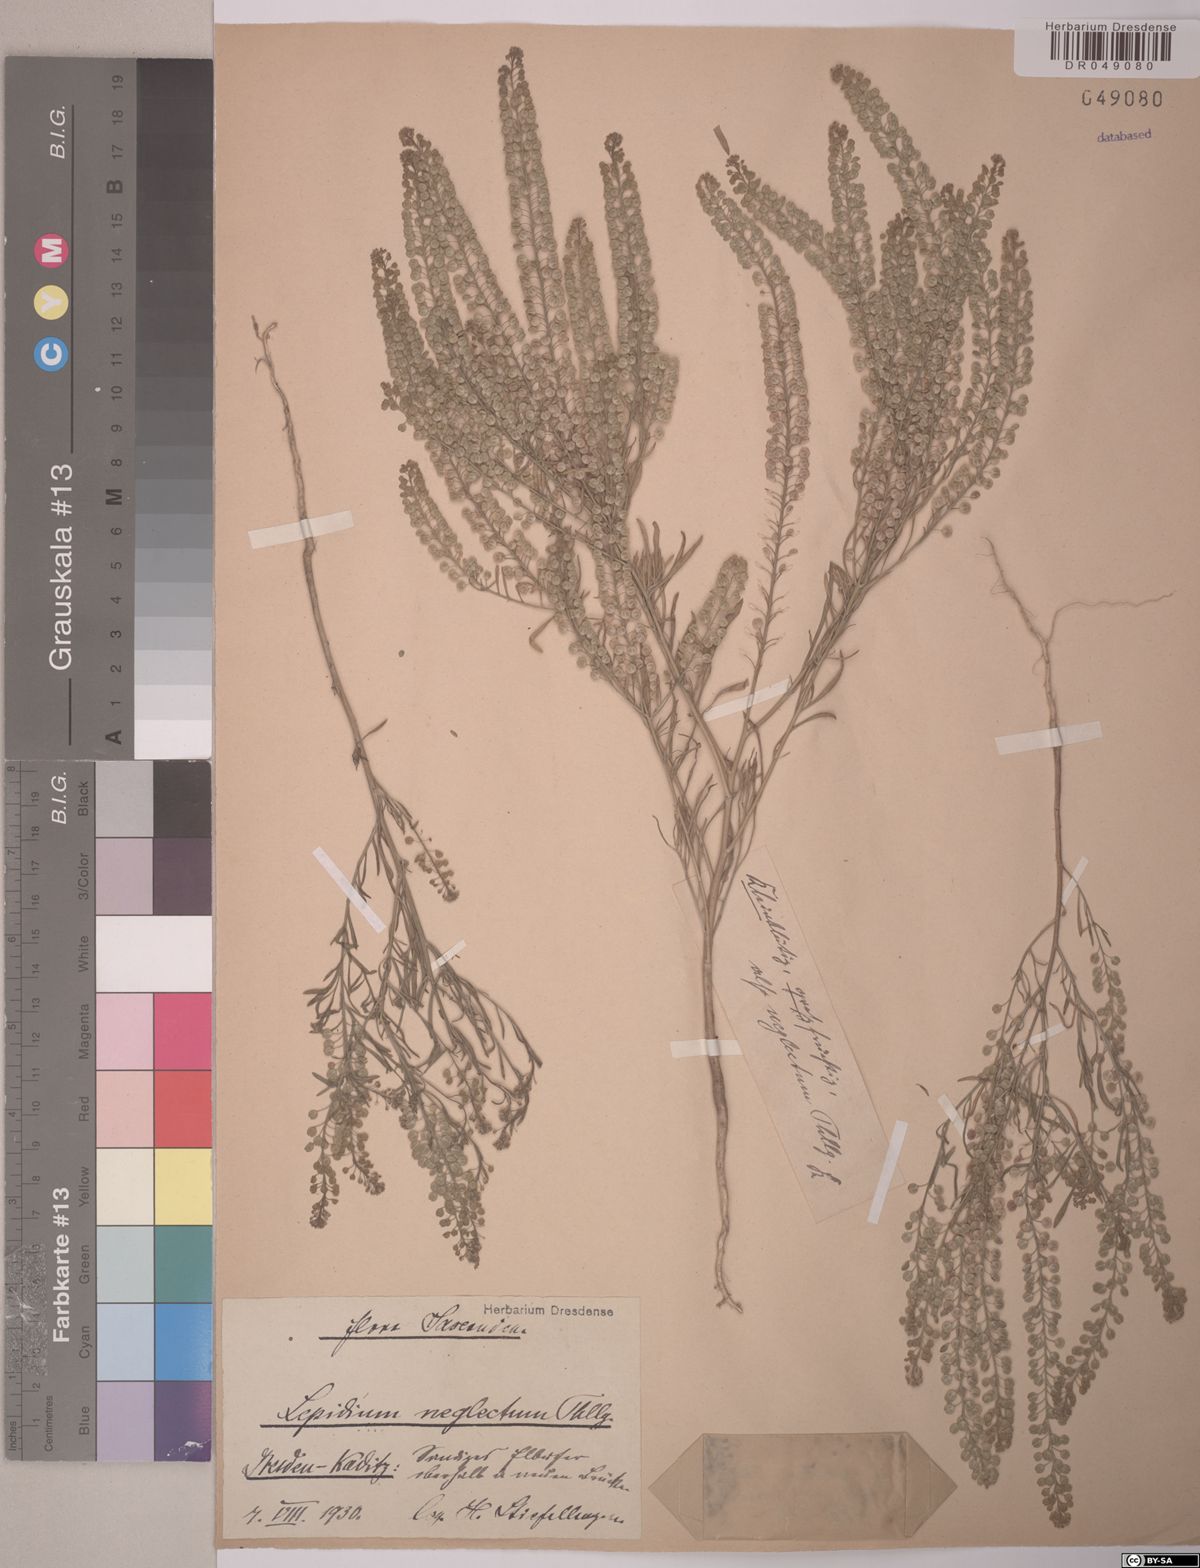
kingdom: Plantae
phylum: Tracheophyta
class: Magnoliopsida
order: Brassicales
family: Brassicaceae
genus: Lepidium
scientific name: Lepidium densiflorum
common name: Miner's pepperwort
